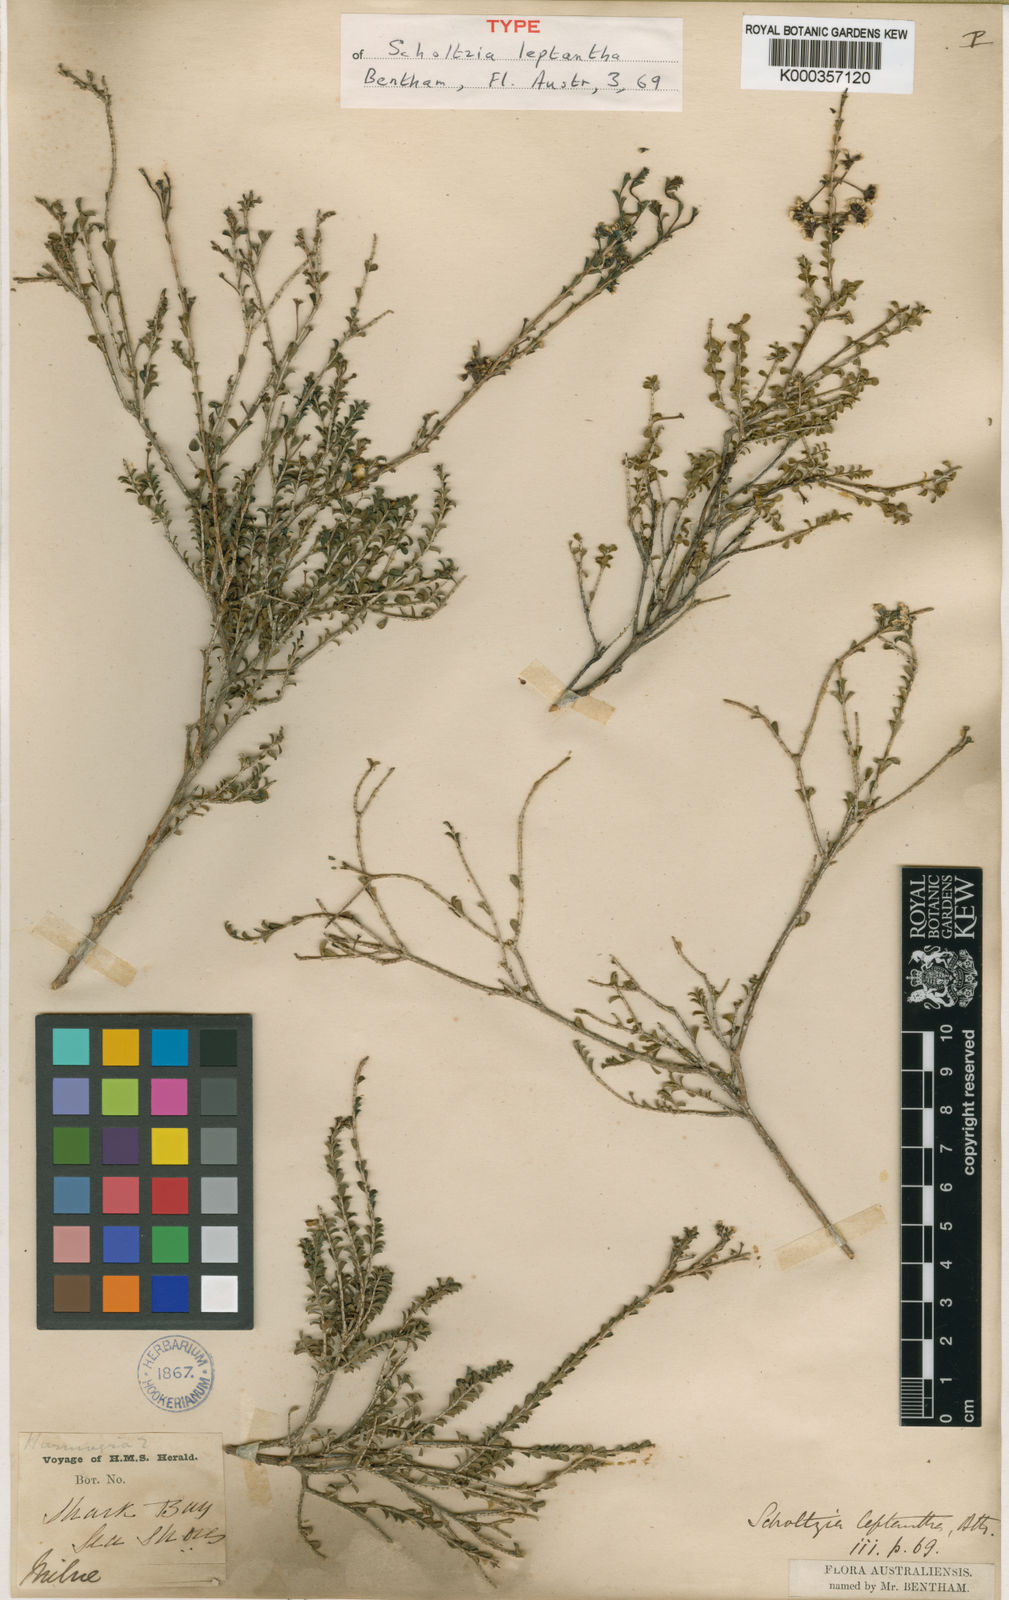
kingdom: Plantae
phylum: Tracheophyta
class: Magnoliopsida
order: Myrtales
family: Myrtaceae
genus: Scholtzia
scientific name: Scholtzia leptantha
